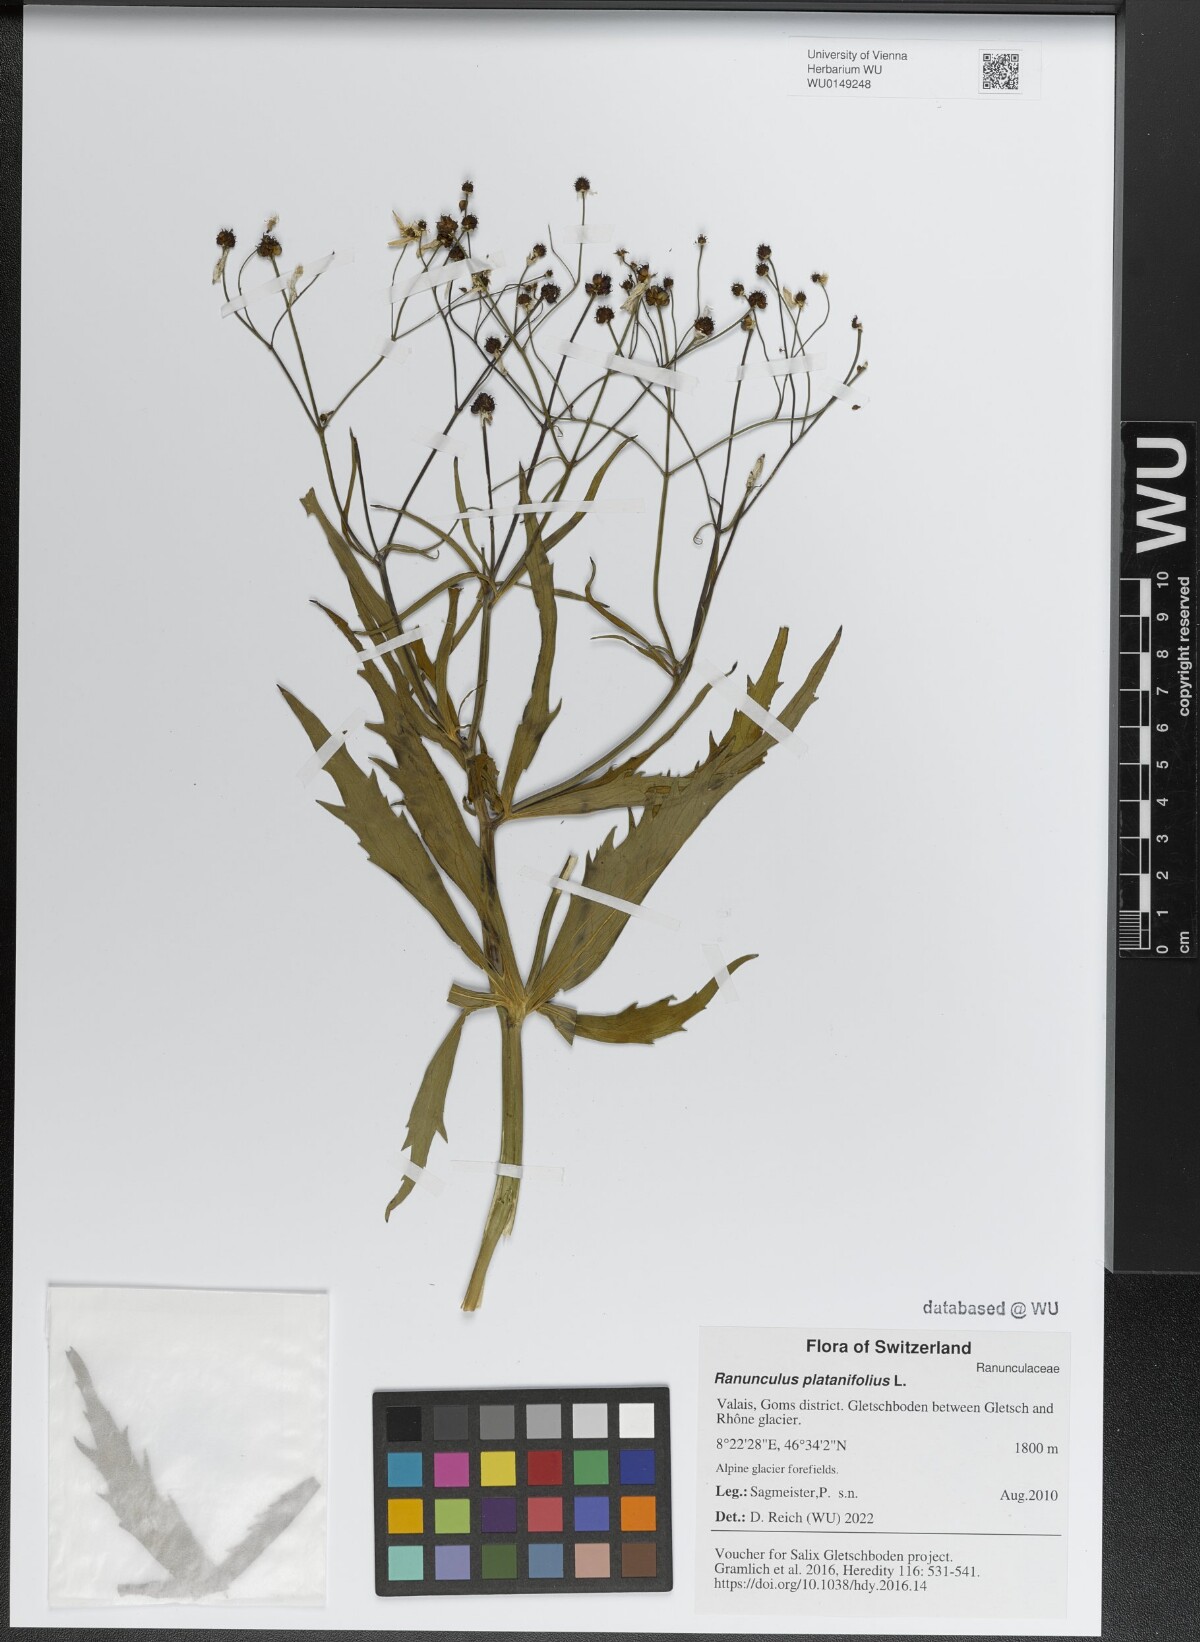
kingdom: Plantae
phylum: Tracheophyta
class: Magnoliopsida
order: Ranunculales
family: Ranunculaceae
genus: Ranunculus
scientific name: Ranunculus platanifolius
